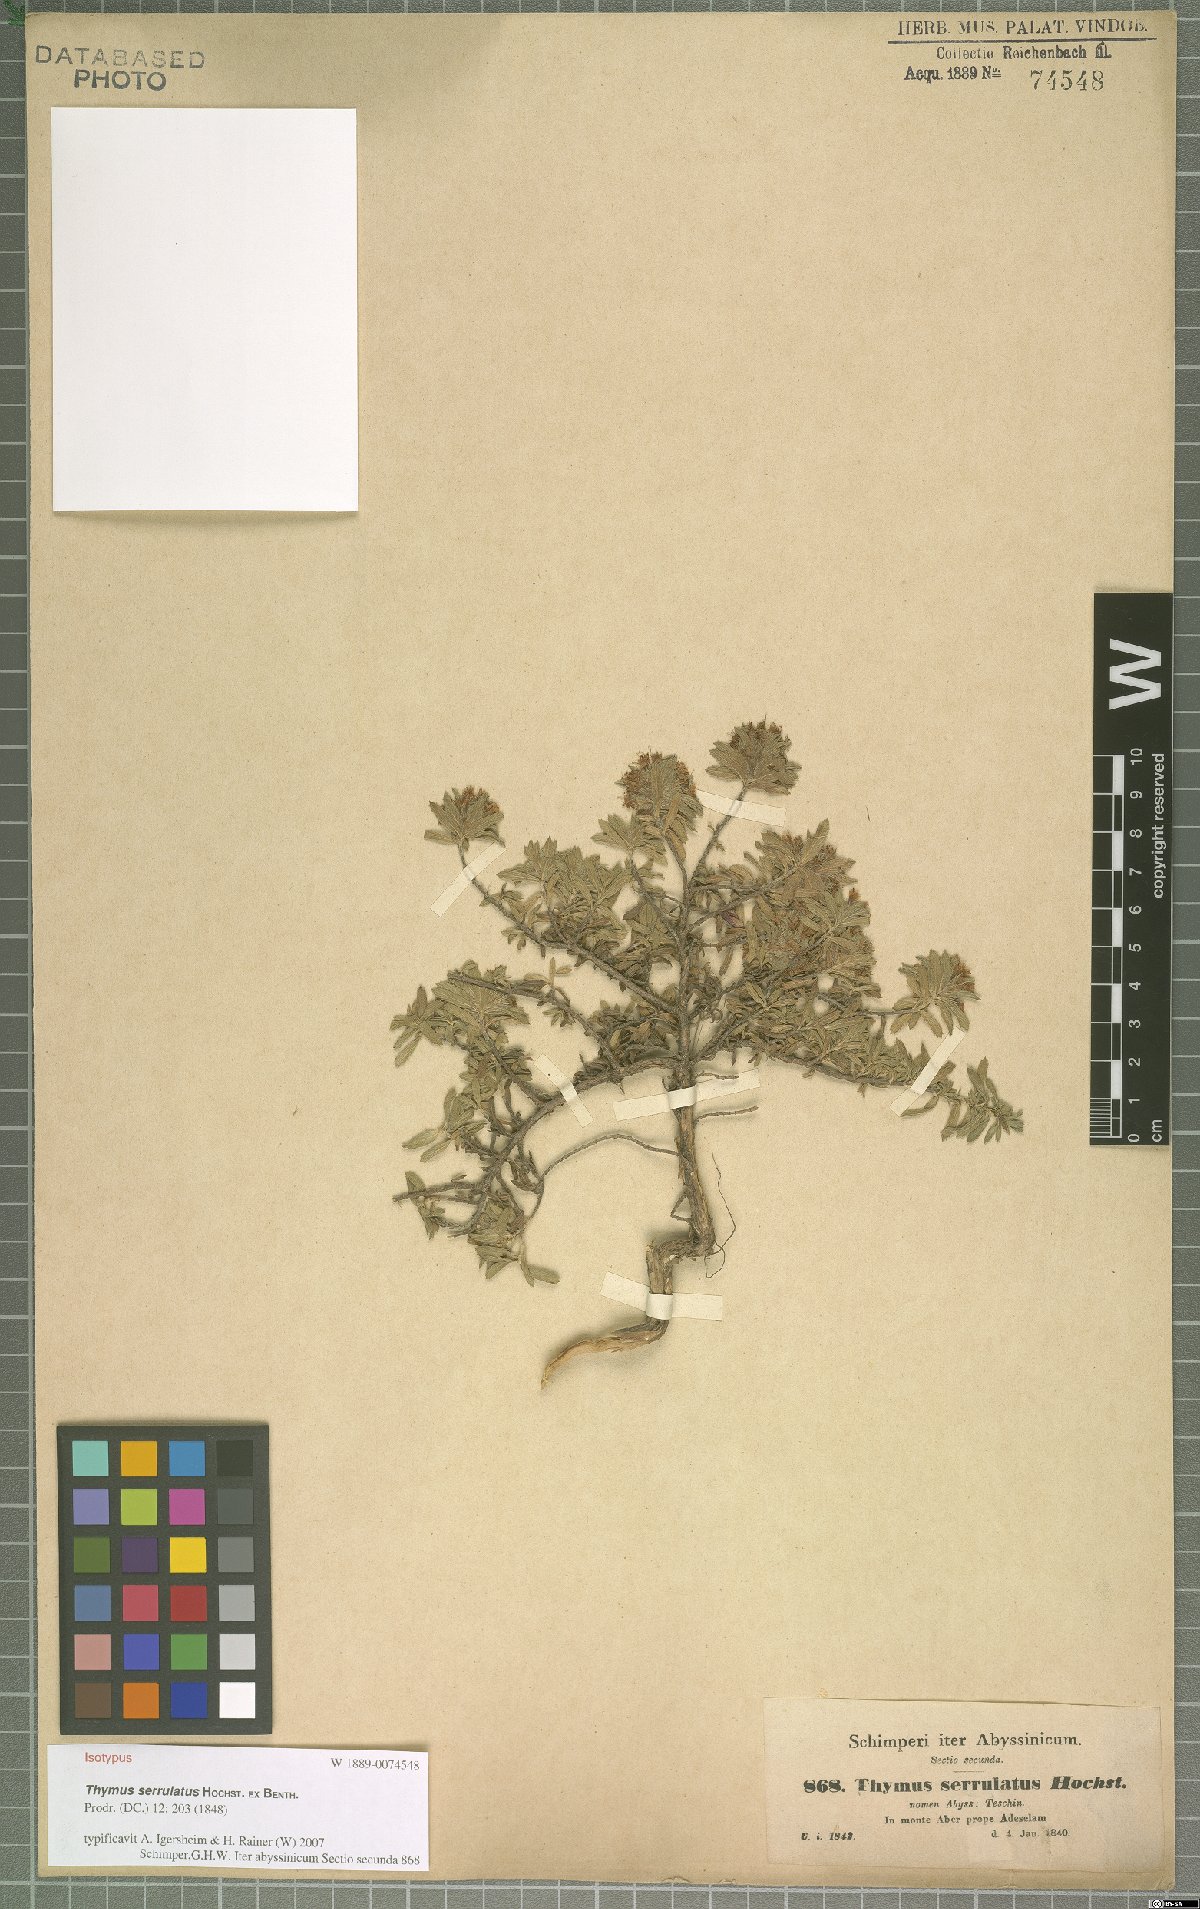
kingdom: Plantae
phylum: Tracheophyta
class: Magnoliopsida
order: Lamiales
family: Lamiaceae
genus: Thymus
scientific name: Thymus serrulatus
